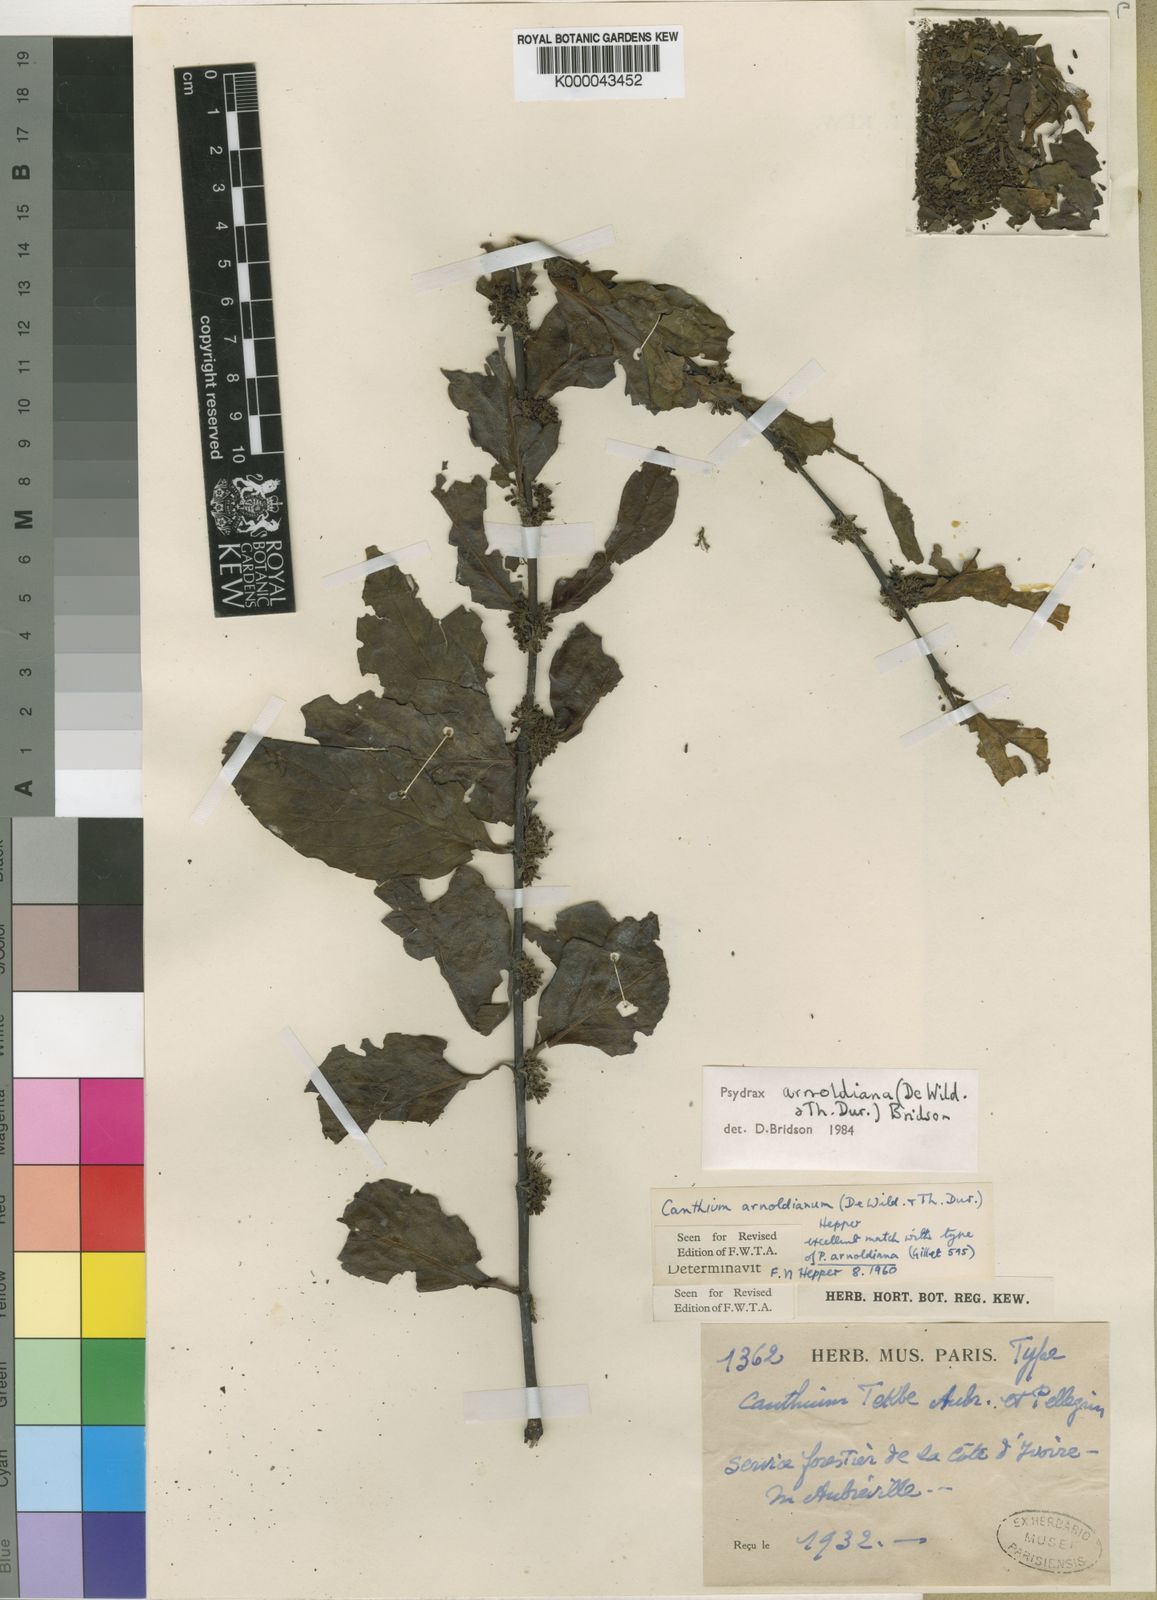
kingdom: Plantae
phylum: Tracheophyta
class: Magnoliopsida
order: Gentianales
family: Rubiaceae
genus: Psydrax
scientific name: Psydrax
